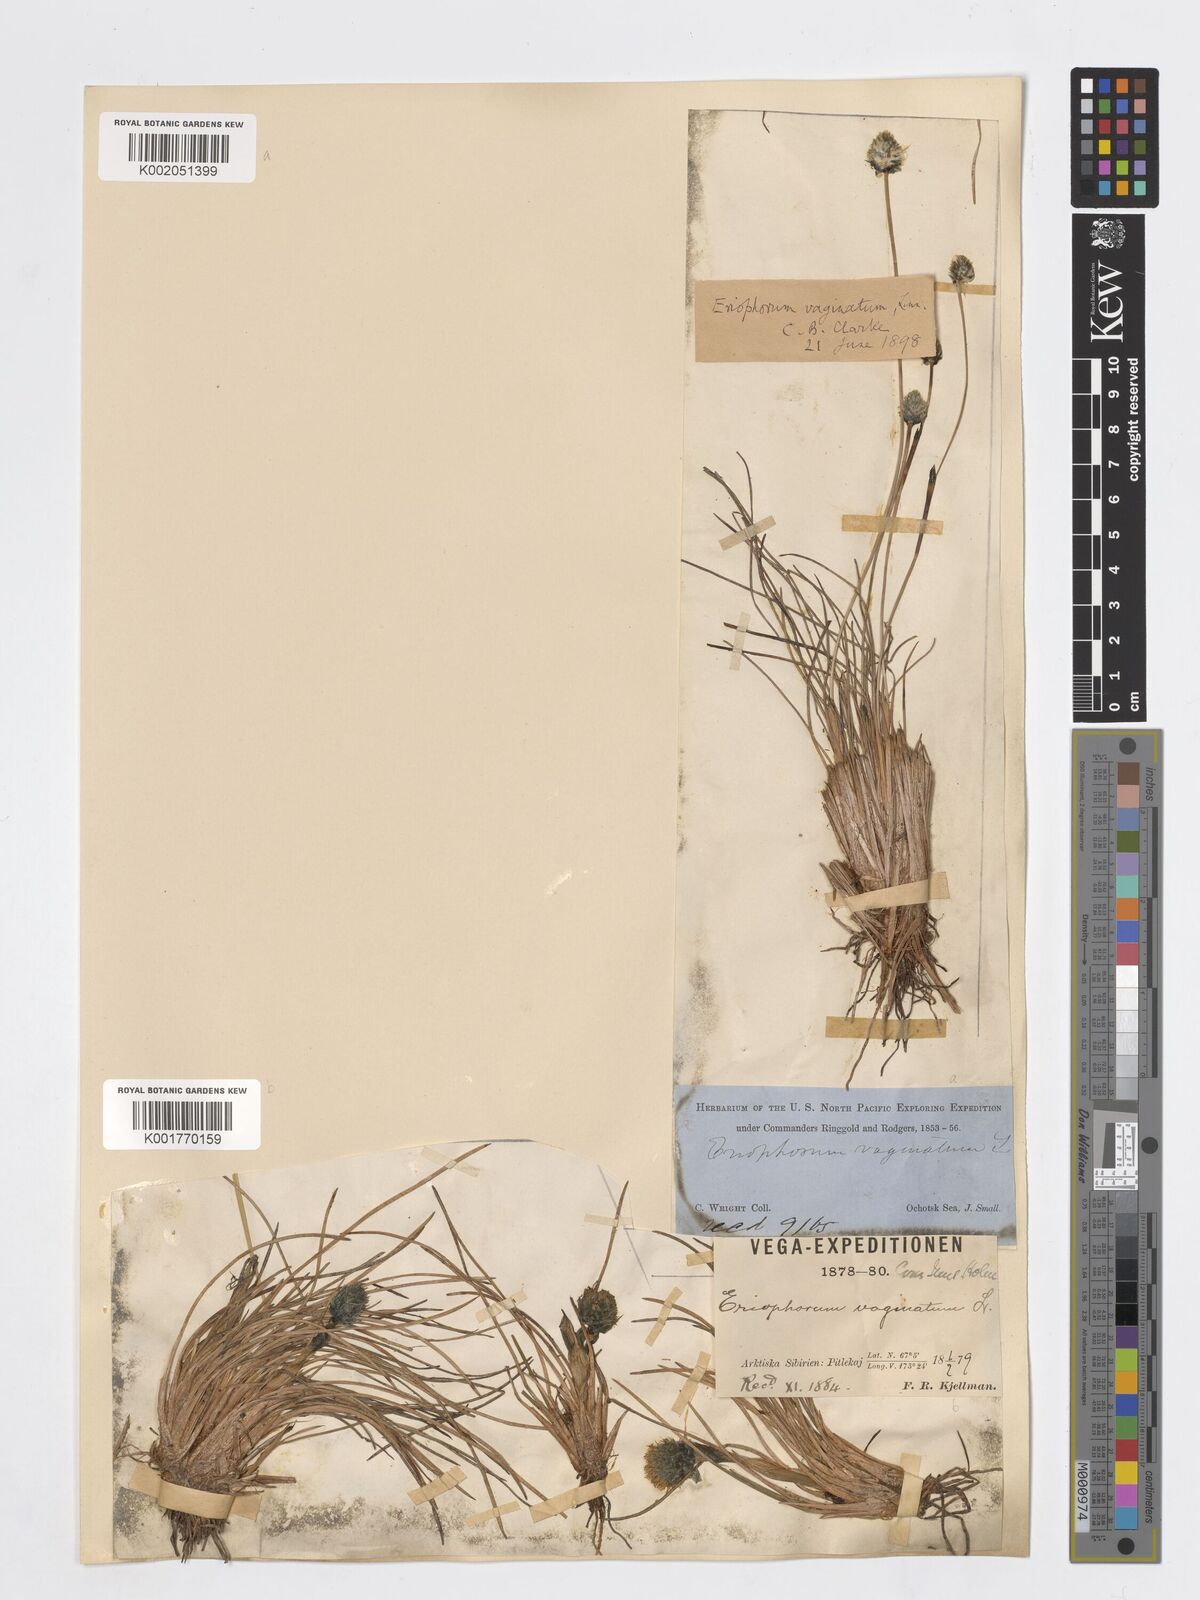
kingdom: Plantae
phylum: Tracheophyta
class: Liliopsida
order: Poales
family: Cyperaceae
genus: Eriophorum
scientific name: Eriophorum vaginatum
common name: Hare's-tail cottongrass
